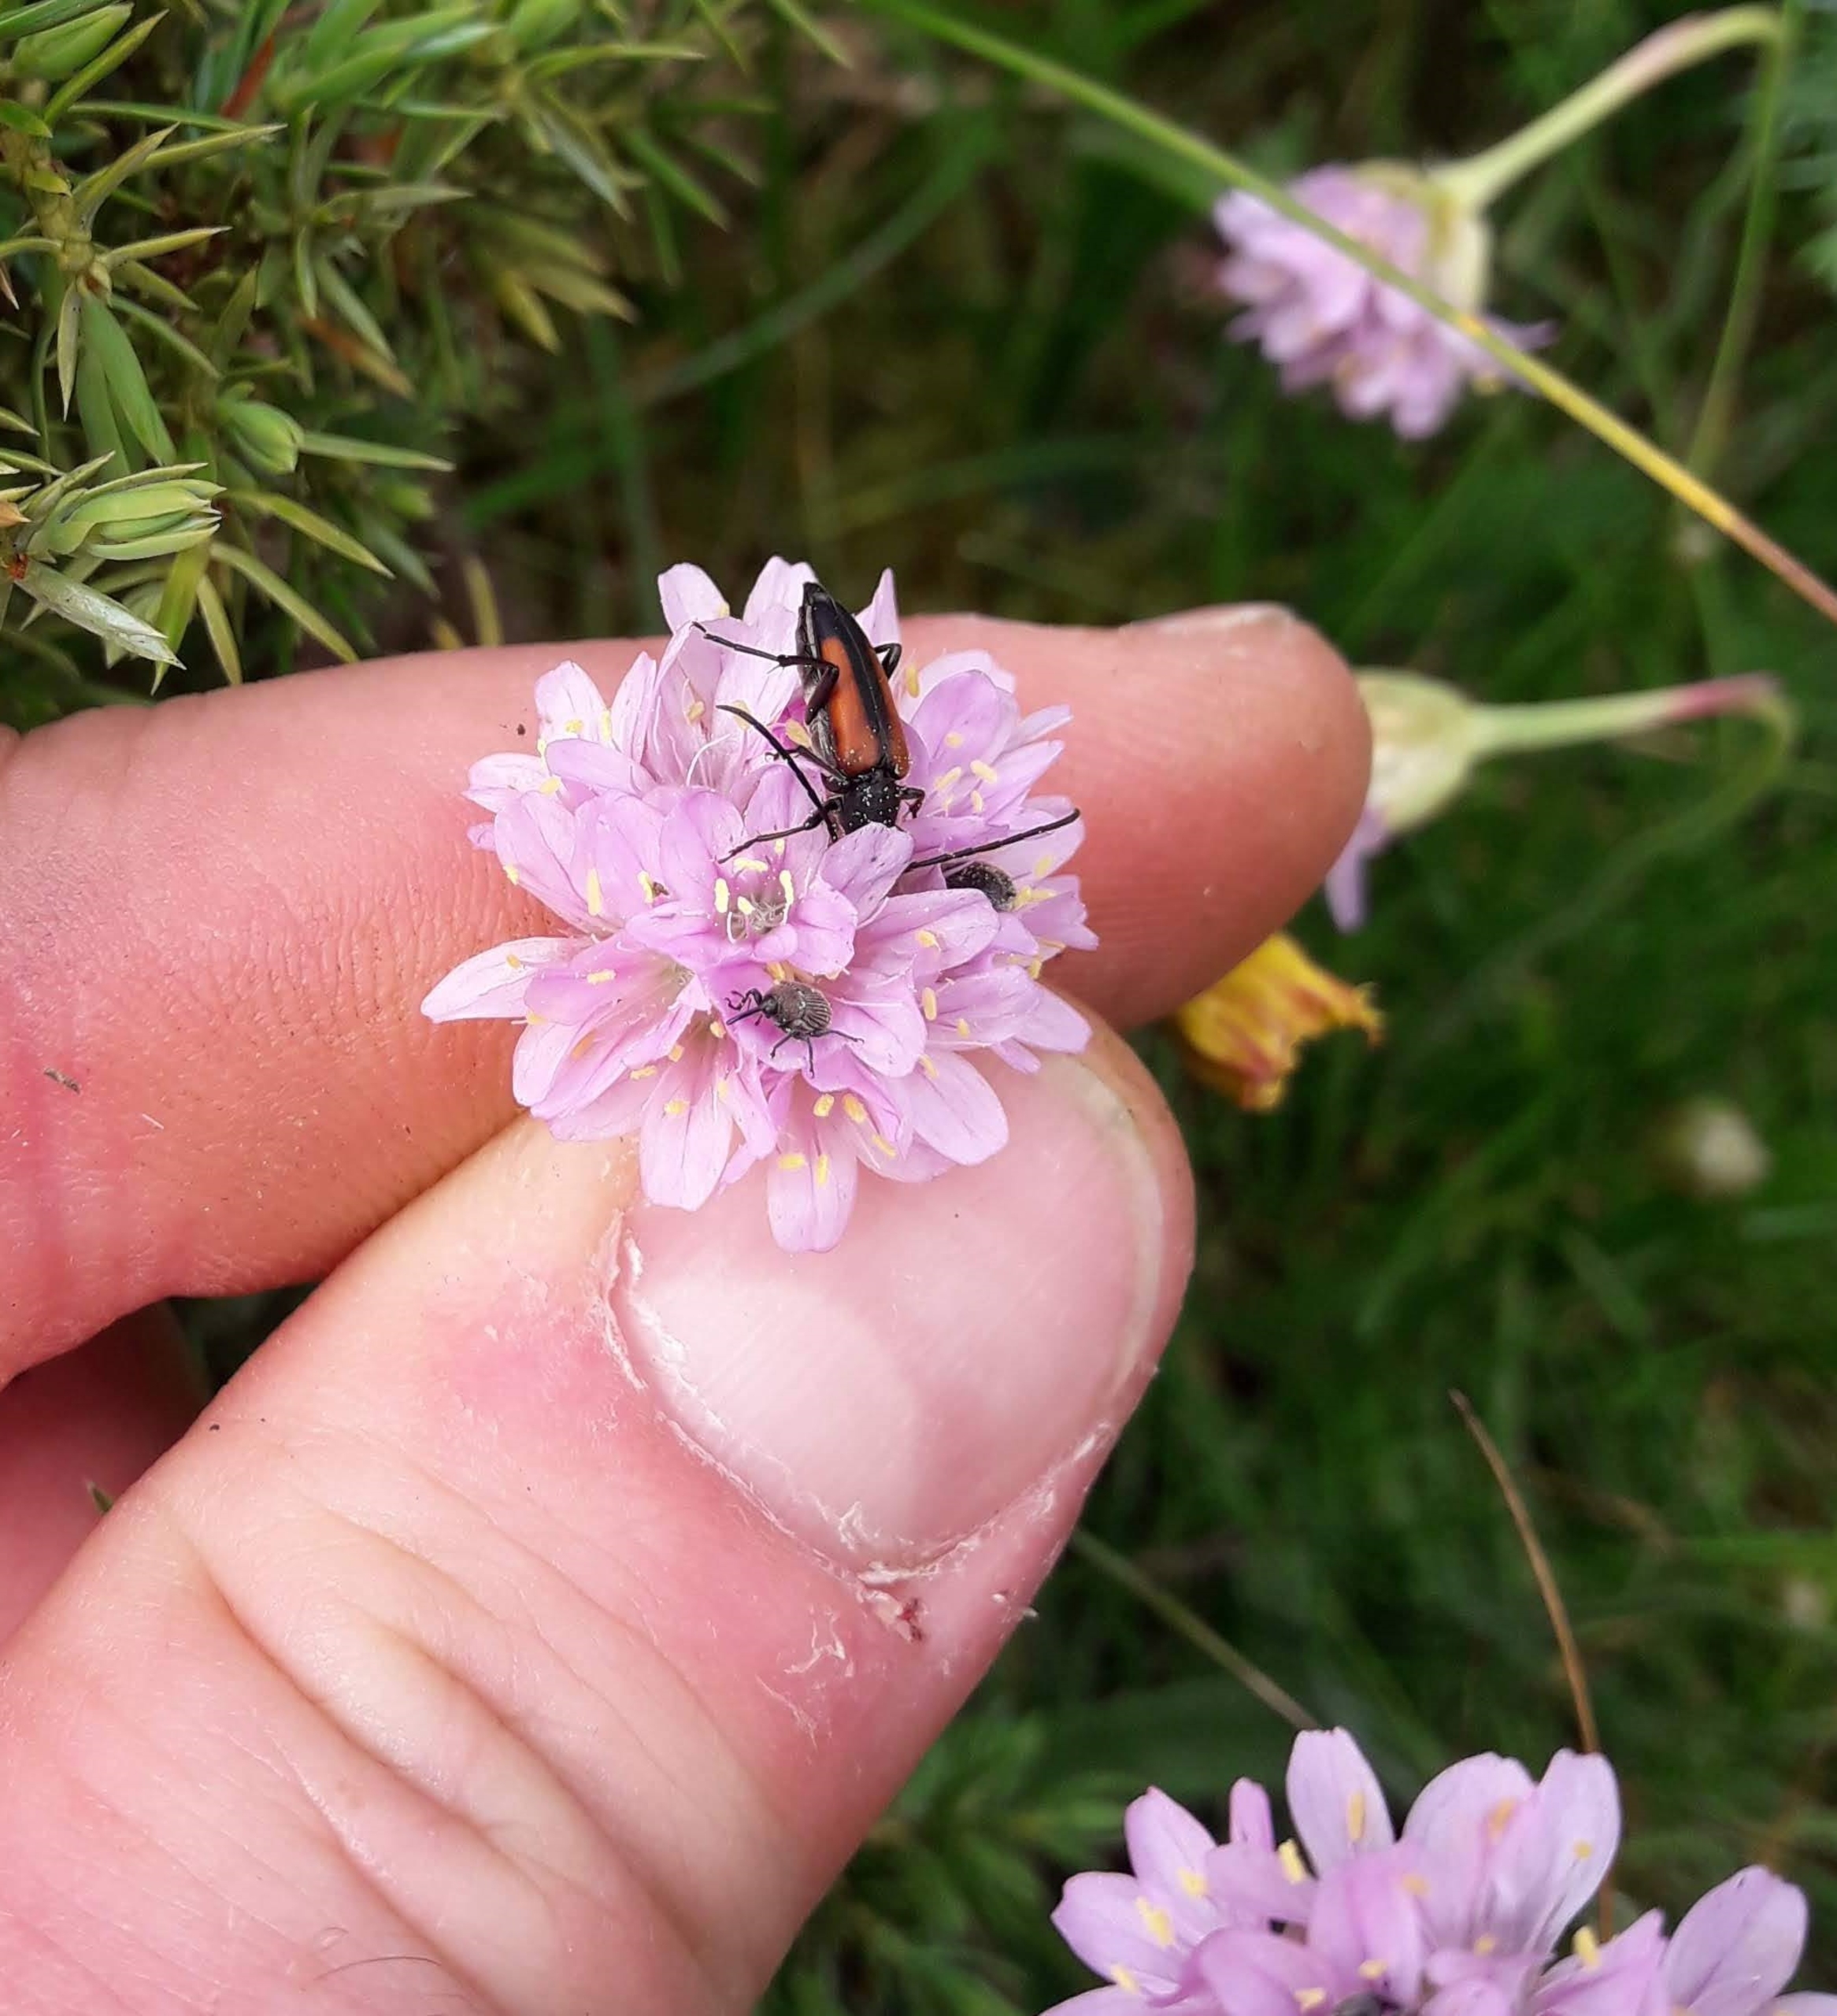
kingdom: Animalia
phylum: Arthropoda
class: Insecta
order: Coleoptera
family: Cerambycidae
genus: Stenurella
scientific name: Stenurella melanura
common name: Sortsømmet blomsterbuk
